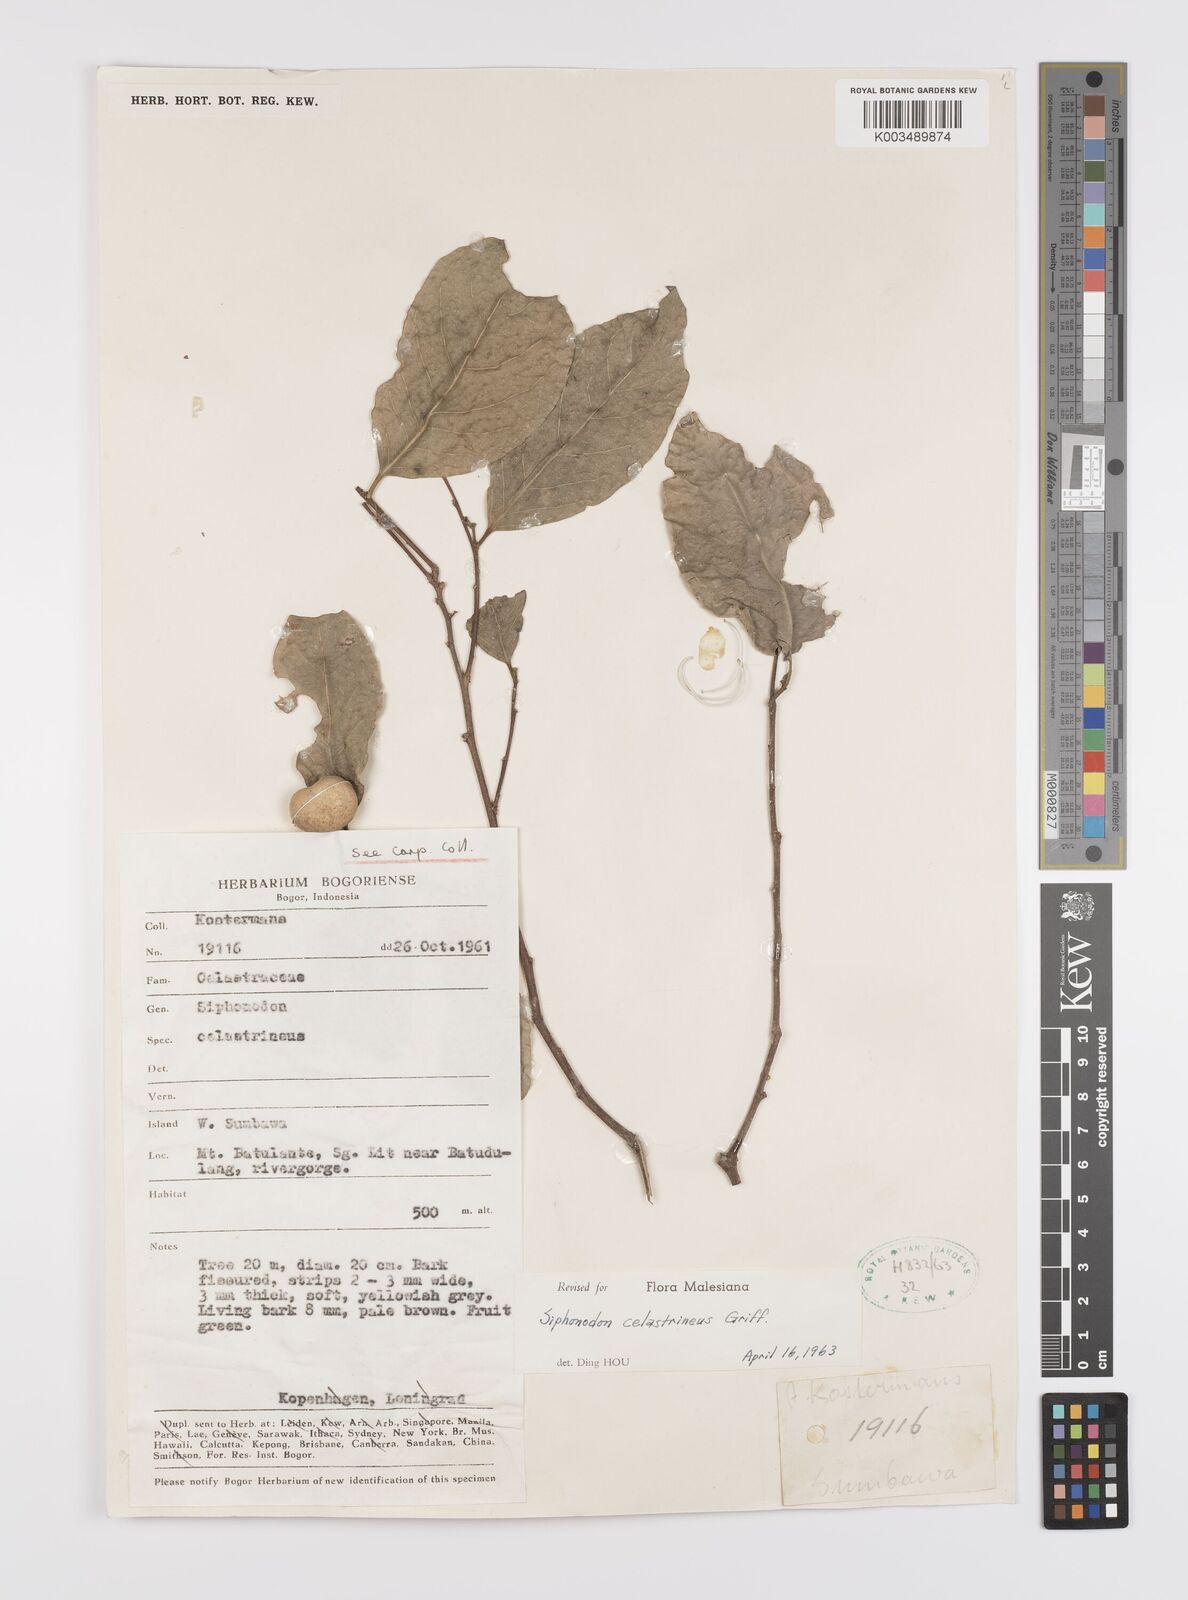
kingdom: Plantae
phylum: Tracheophyta
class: Magnoliopsida
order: Celastrales
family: Celastraceae
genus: Siphonodon
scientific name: Siphonodon celastrineus
